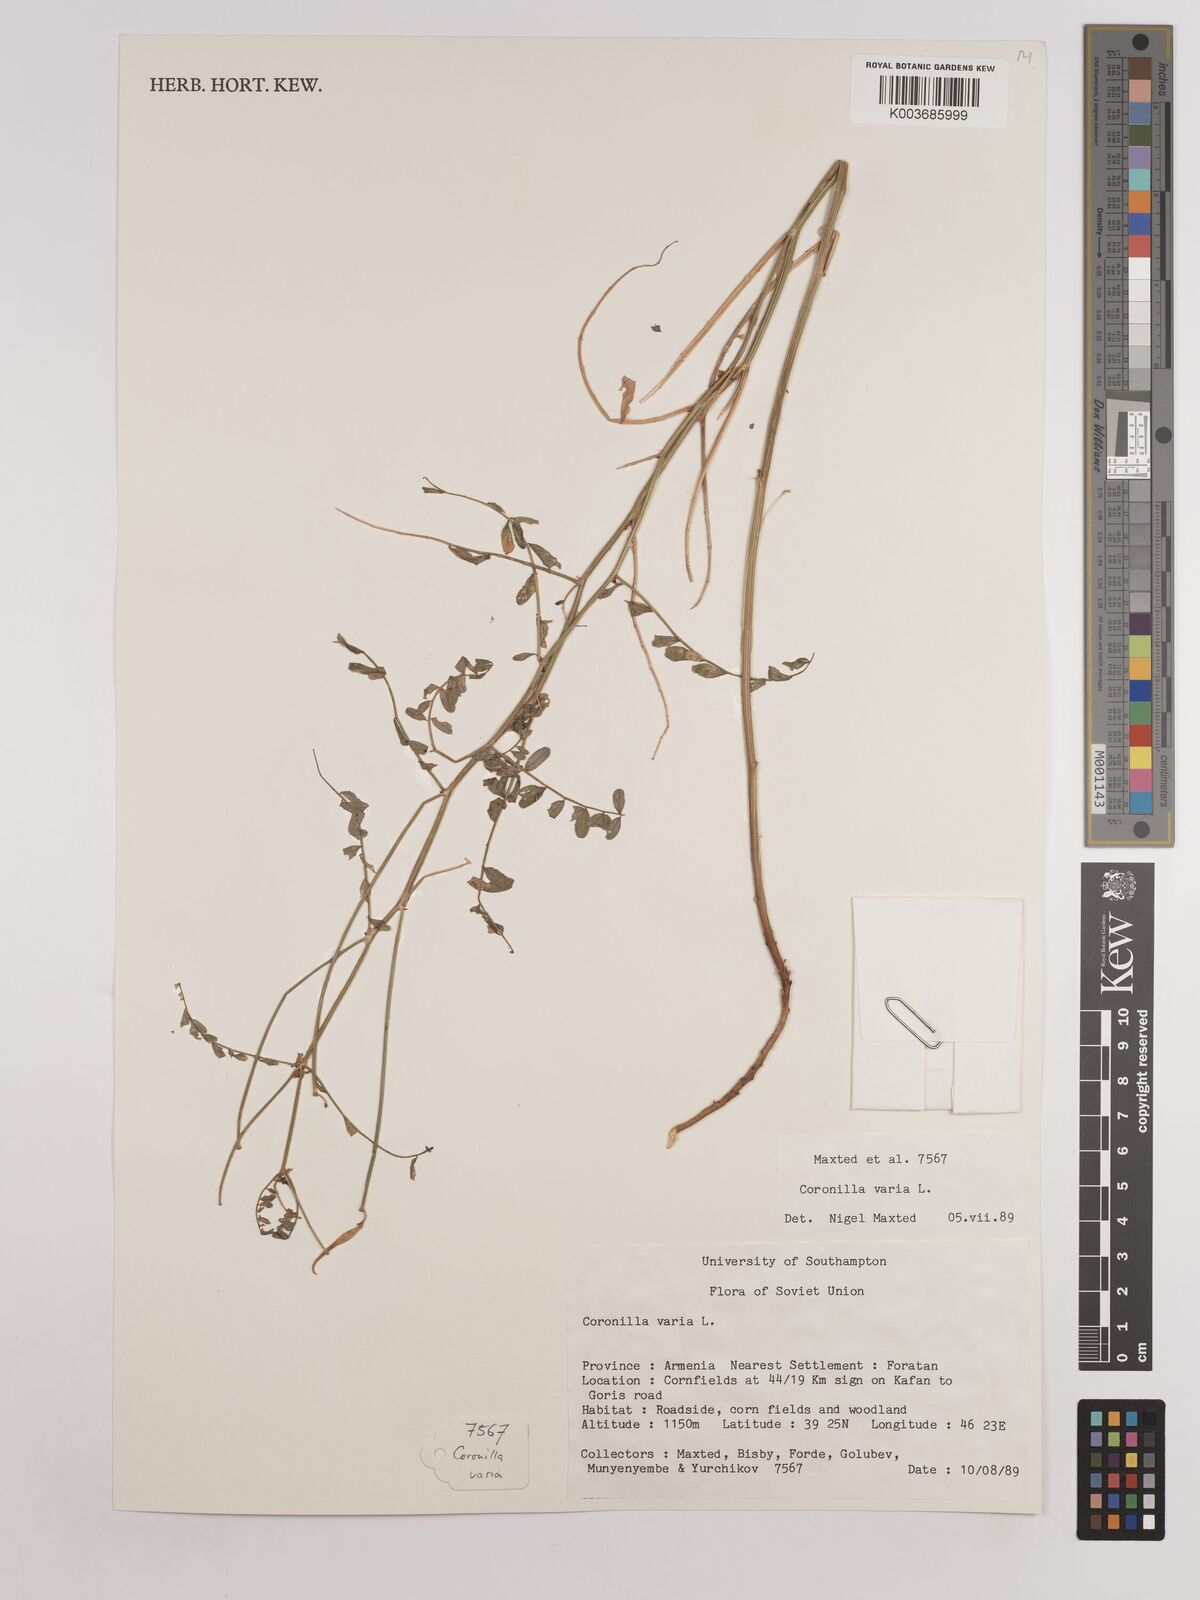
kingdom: Plantae
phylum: Tracheophyta
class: Magnoliopsida
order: Fabales
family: Fabaceae
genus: Coronilla
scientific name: Coronilla varia
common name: Crownvetch
